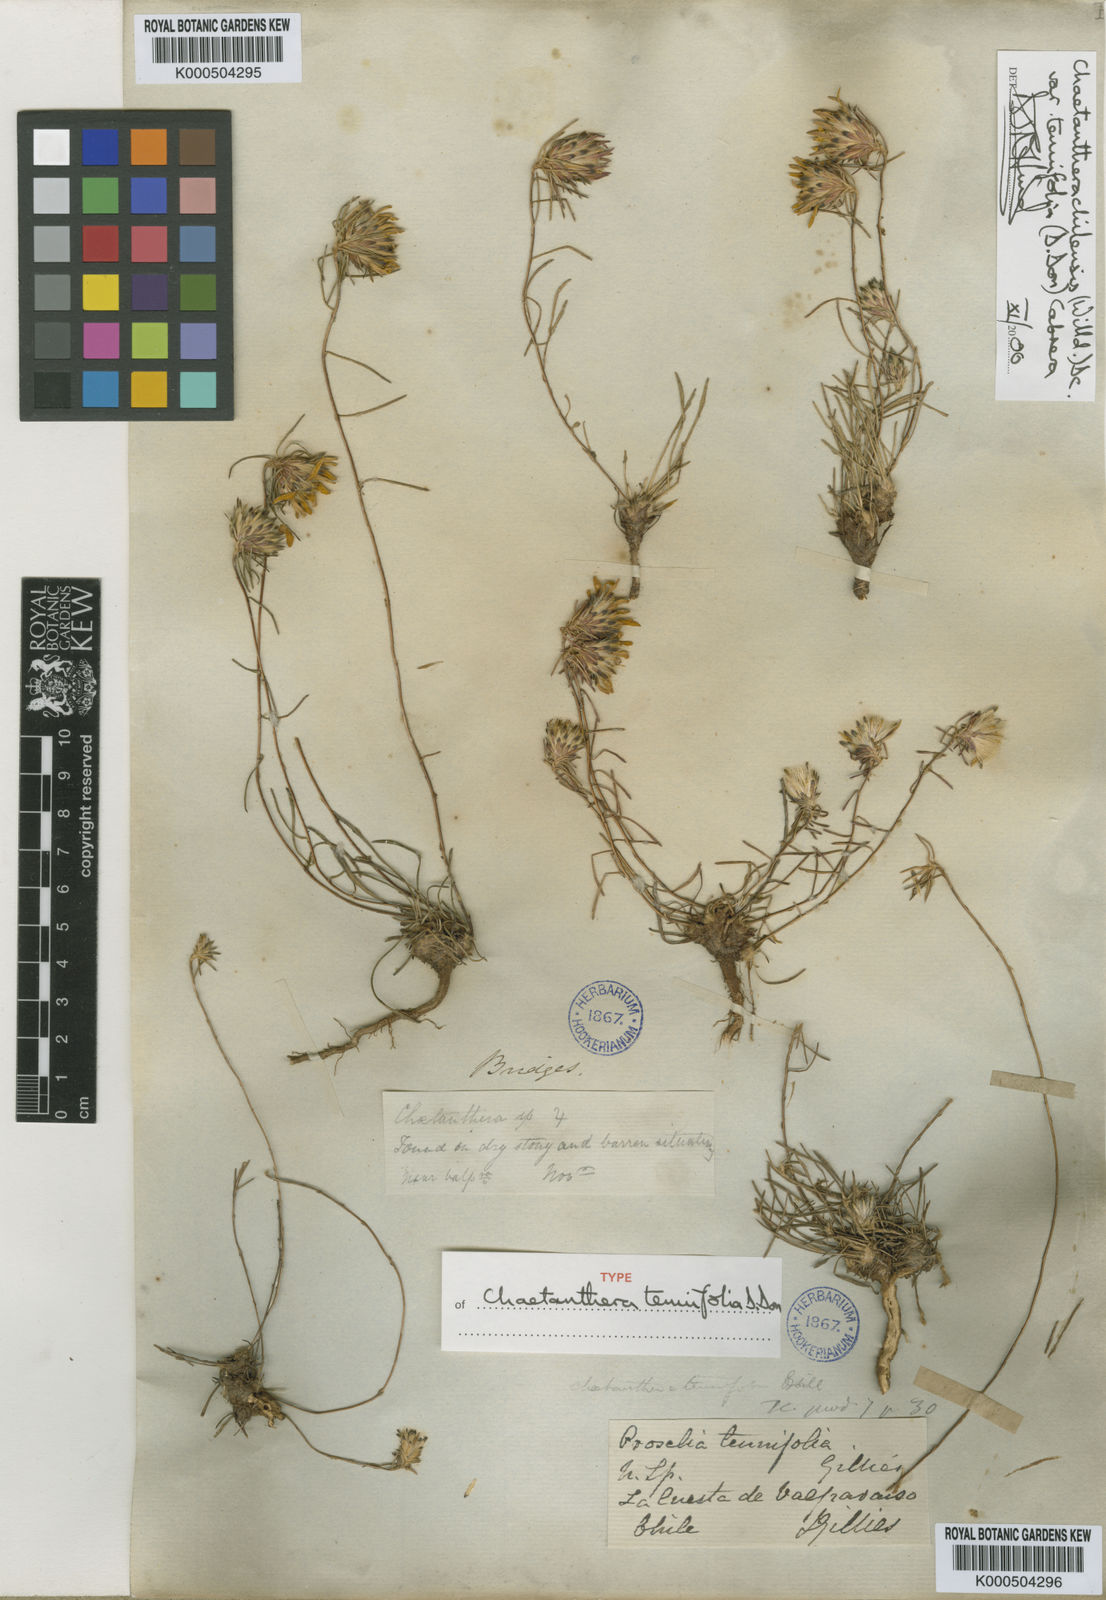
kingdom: Plantae
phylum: Tracheophyta
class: Magnoliopsida
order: Asterales
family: Asteraceae
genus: Chaetanthera
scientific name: Chaetanthera chilensis
